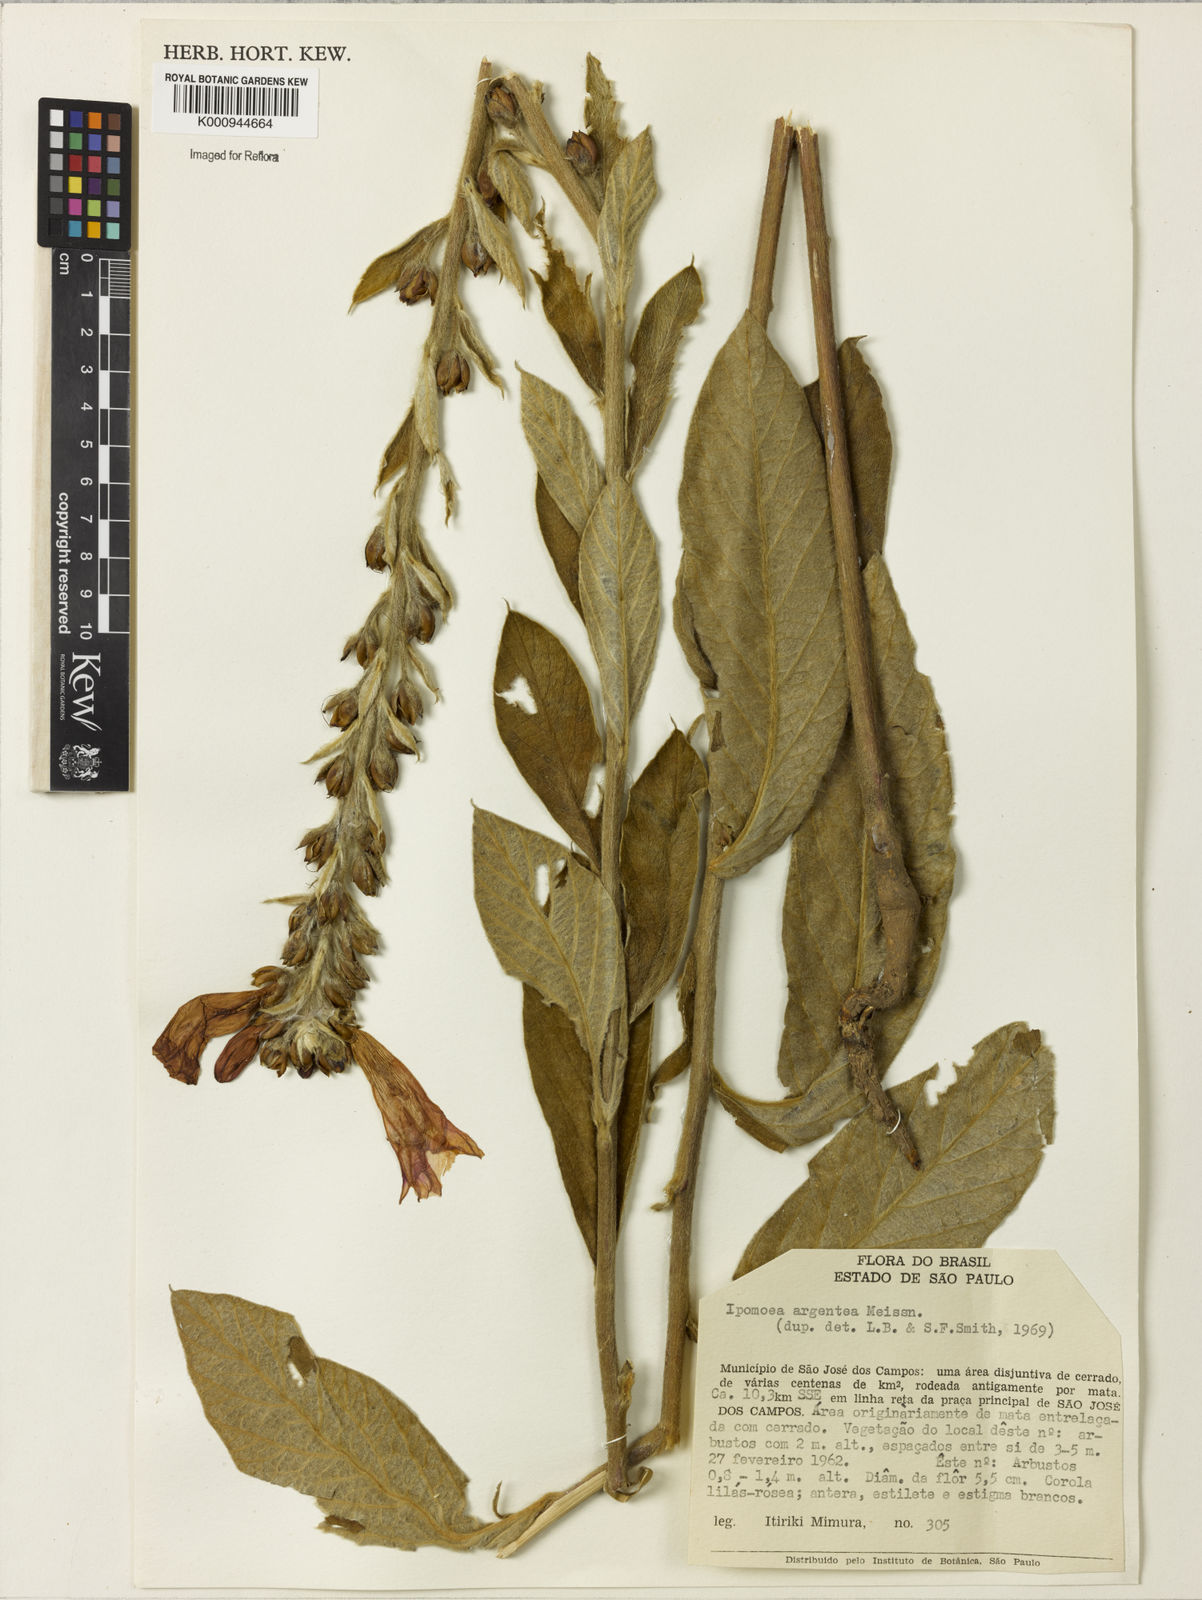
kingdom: Plantae
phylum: Tracheophyta
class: Magnoliopsida
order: Solanales
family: Convolvulaceae
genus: Ipomoea
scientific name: Ipomoea
